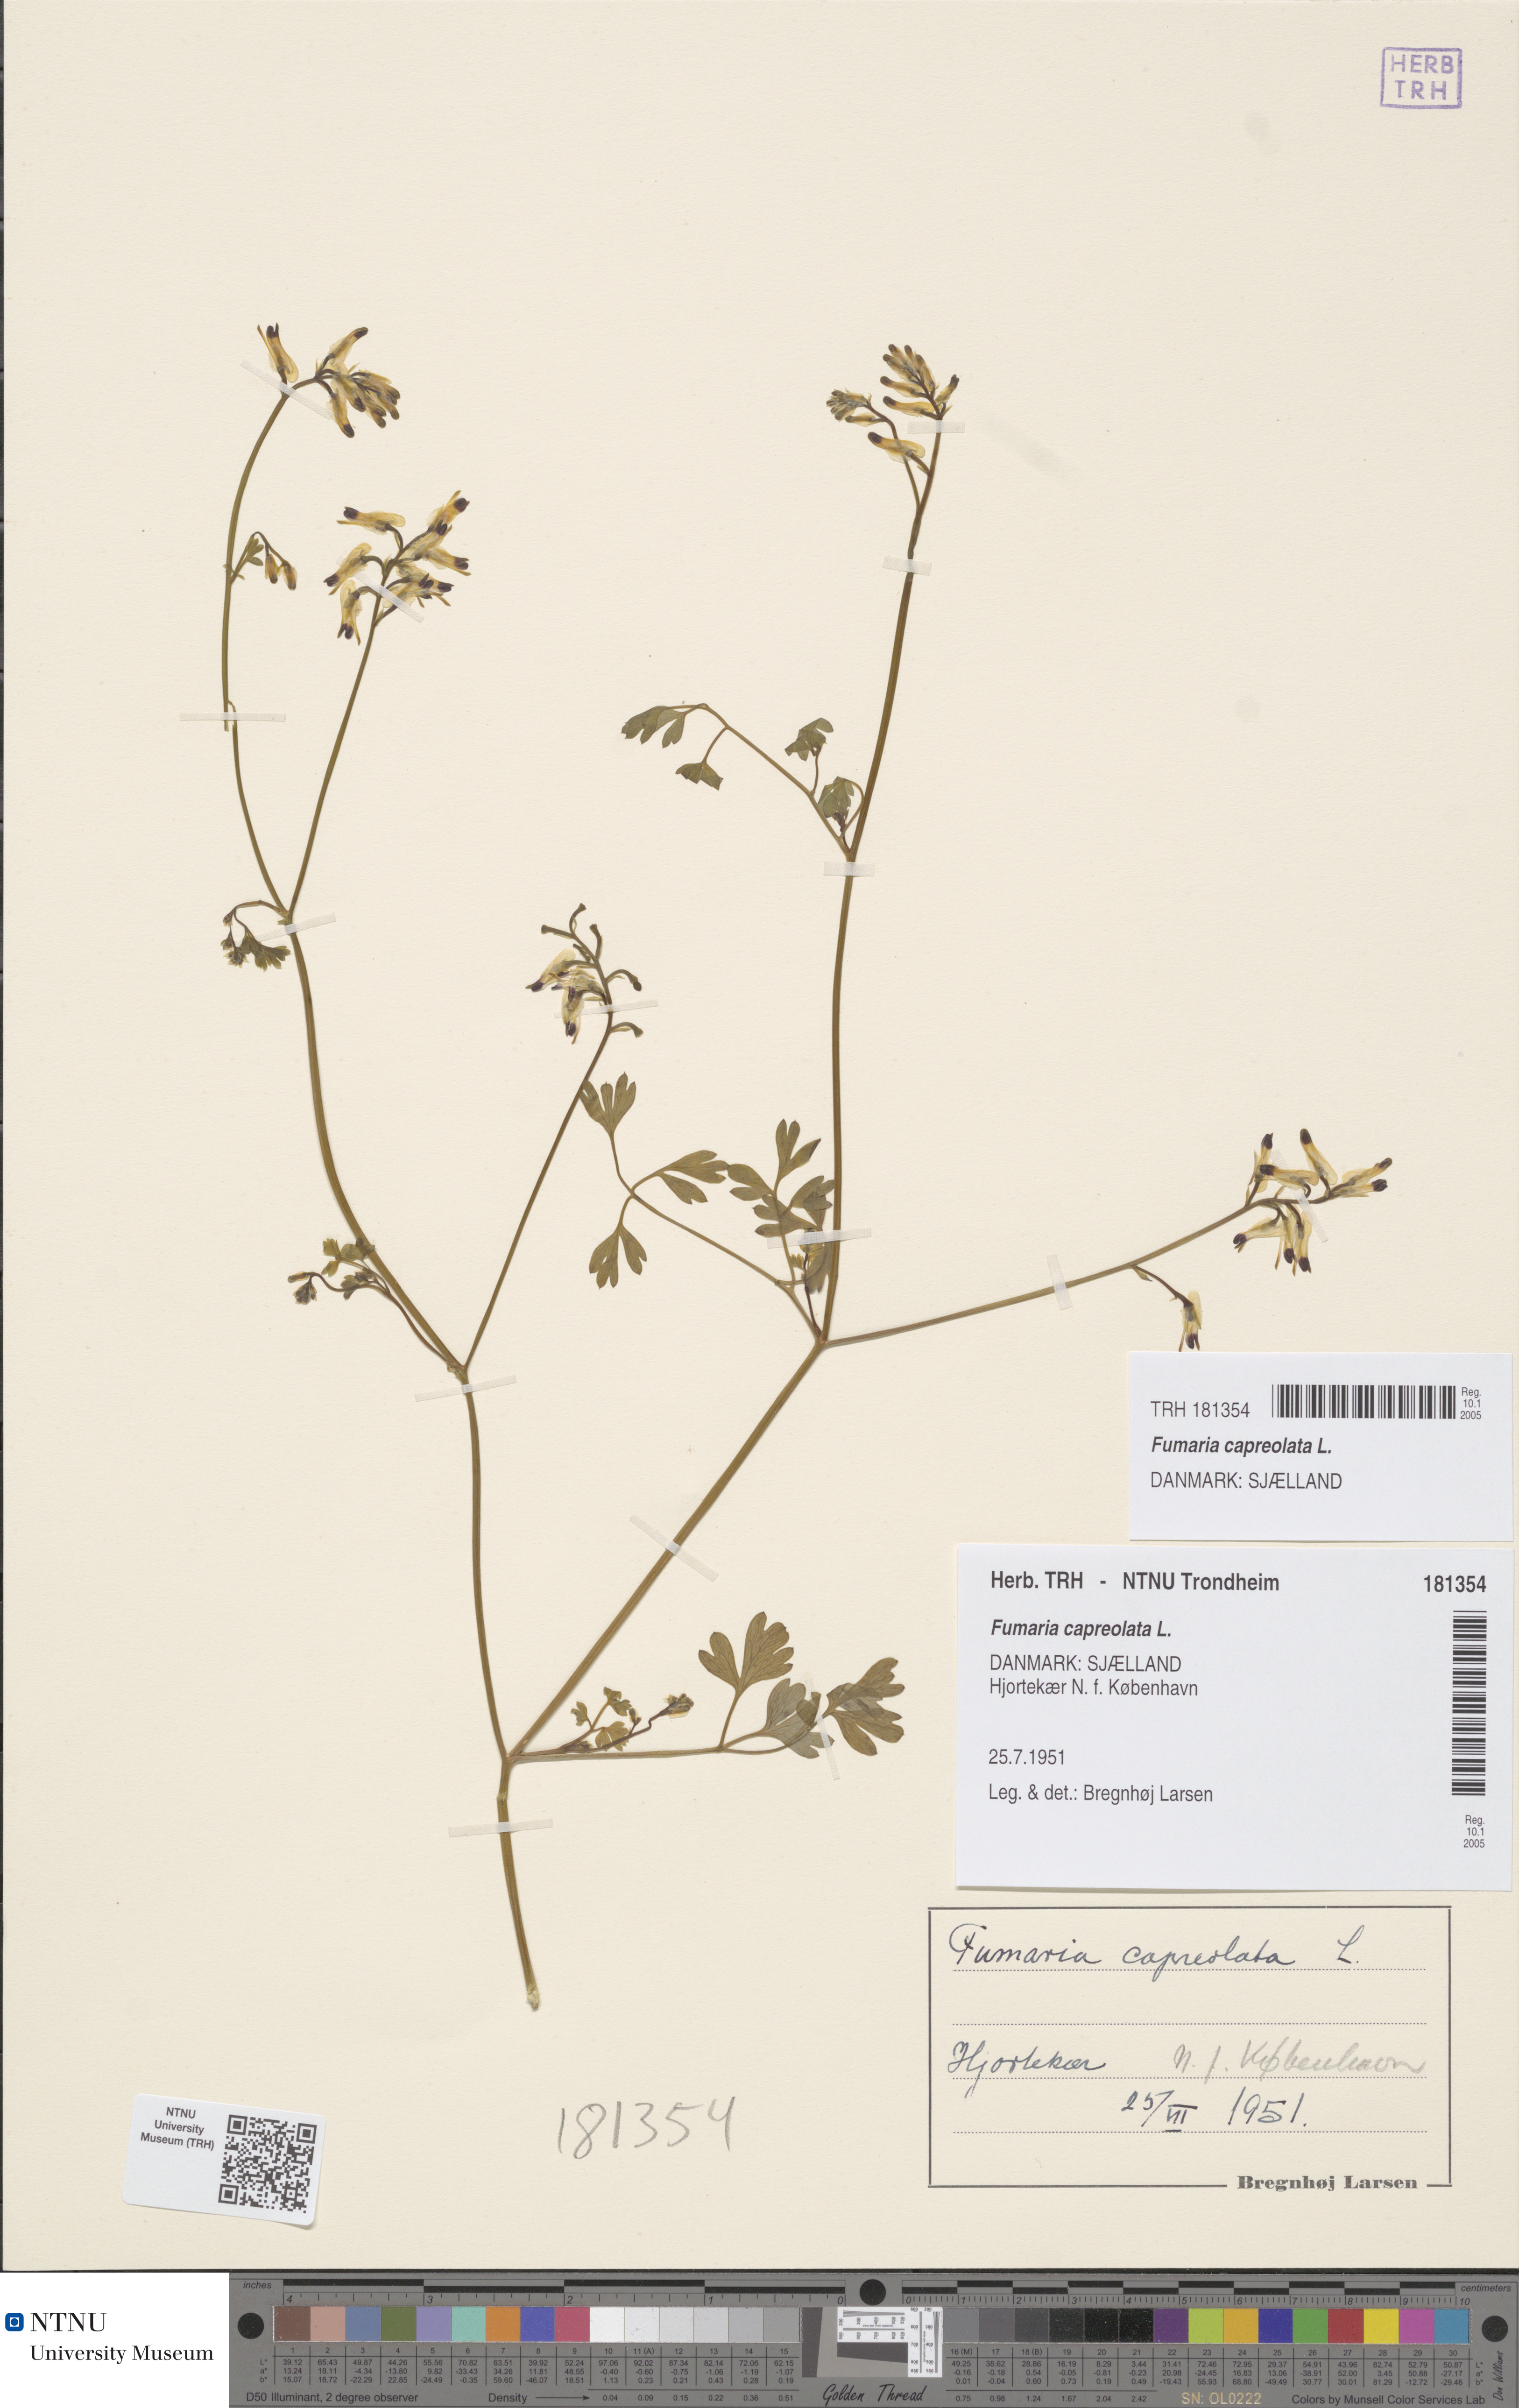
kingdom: Plantae
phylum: Tracheophyta
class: Magnoliopsida
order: Ranunculales
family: Papaveraceae
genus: Fumaria
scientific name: Fumaria capreolata
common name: White ramping-fumitory
